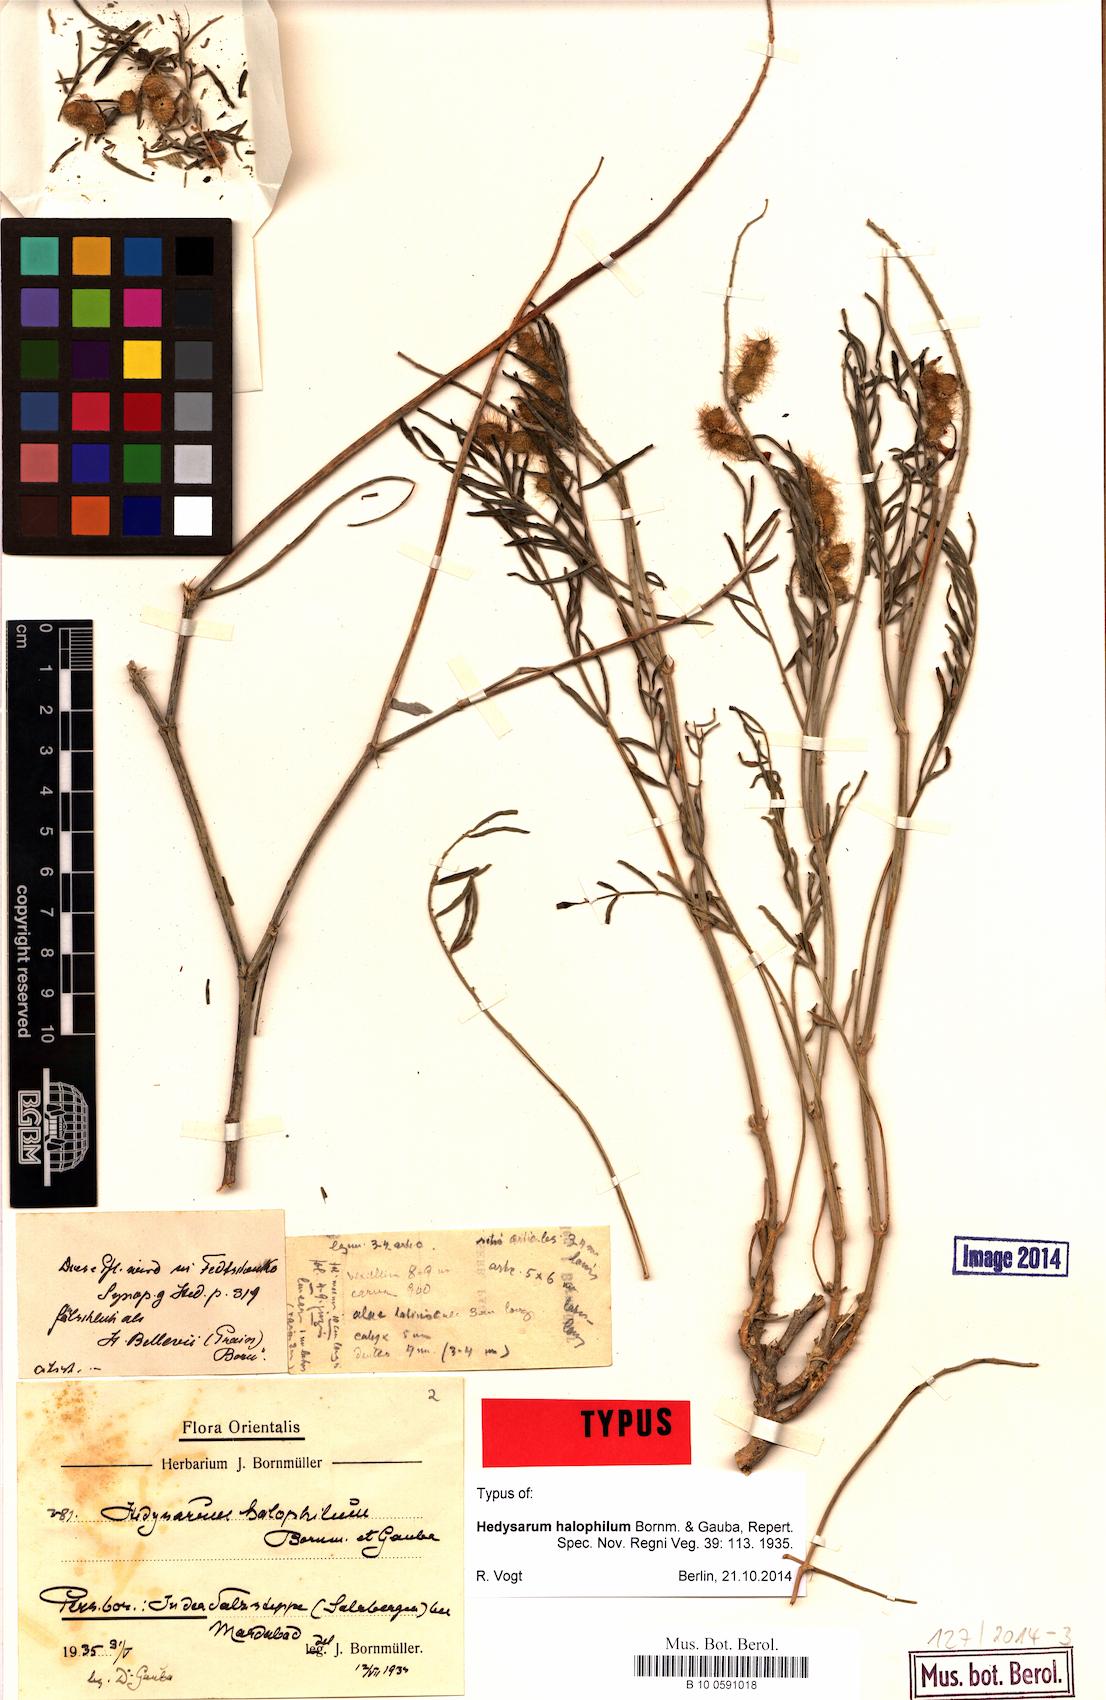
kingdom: Plantae
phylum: Tracheophyta
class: Magnoliopsida
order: Fabales
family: Fabaceae
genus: Hedysarum
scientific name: Hedysarum halophilum
